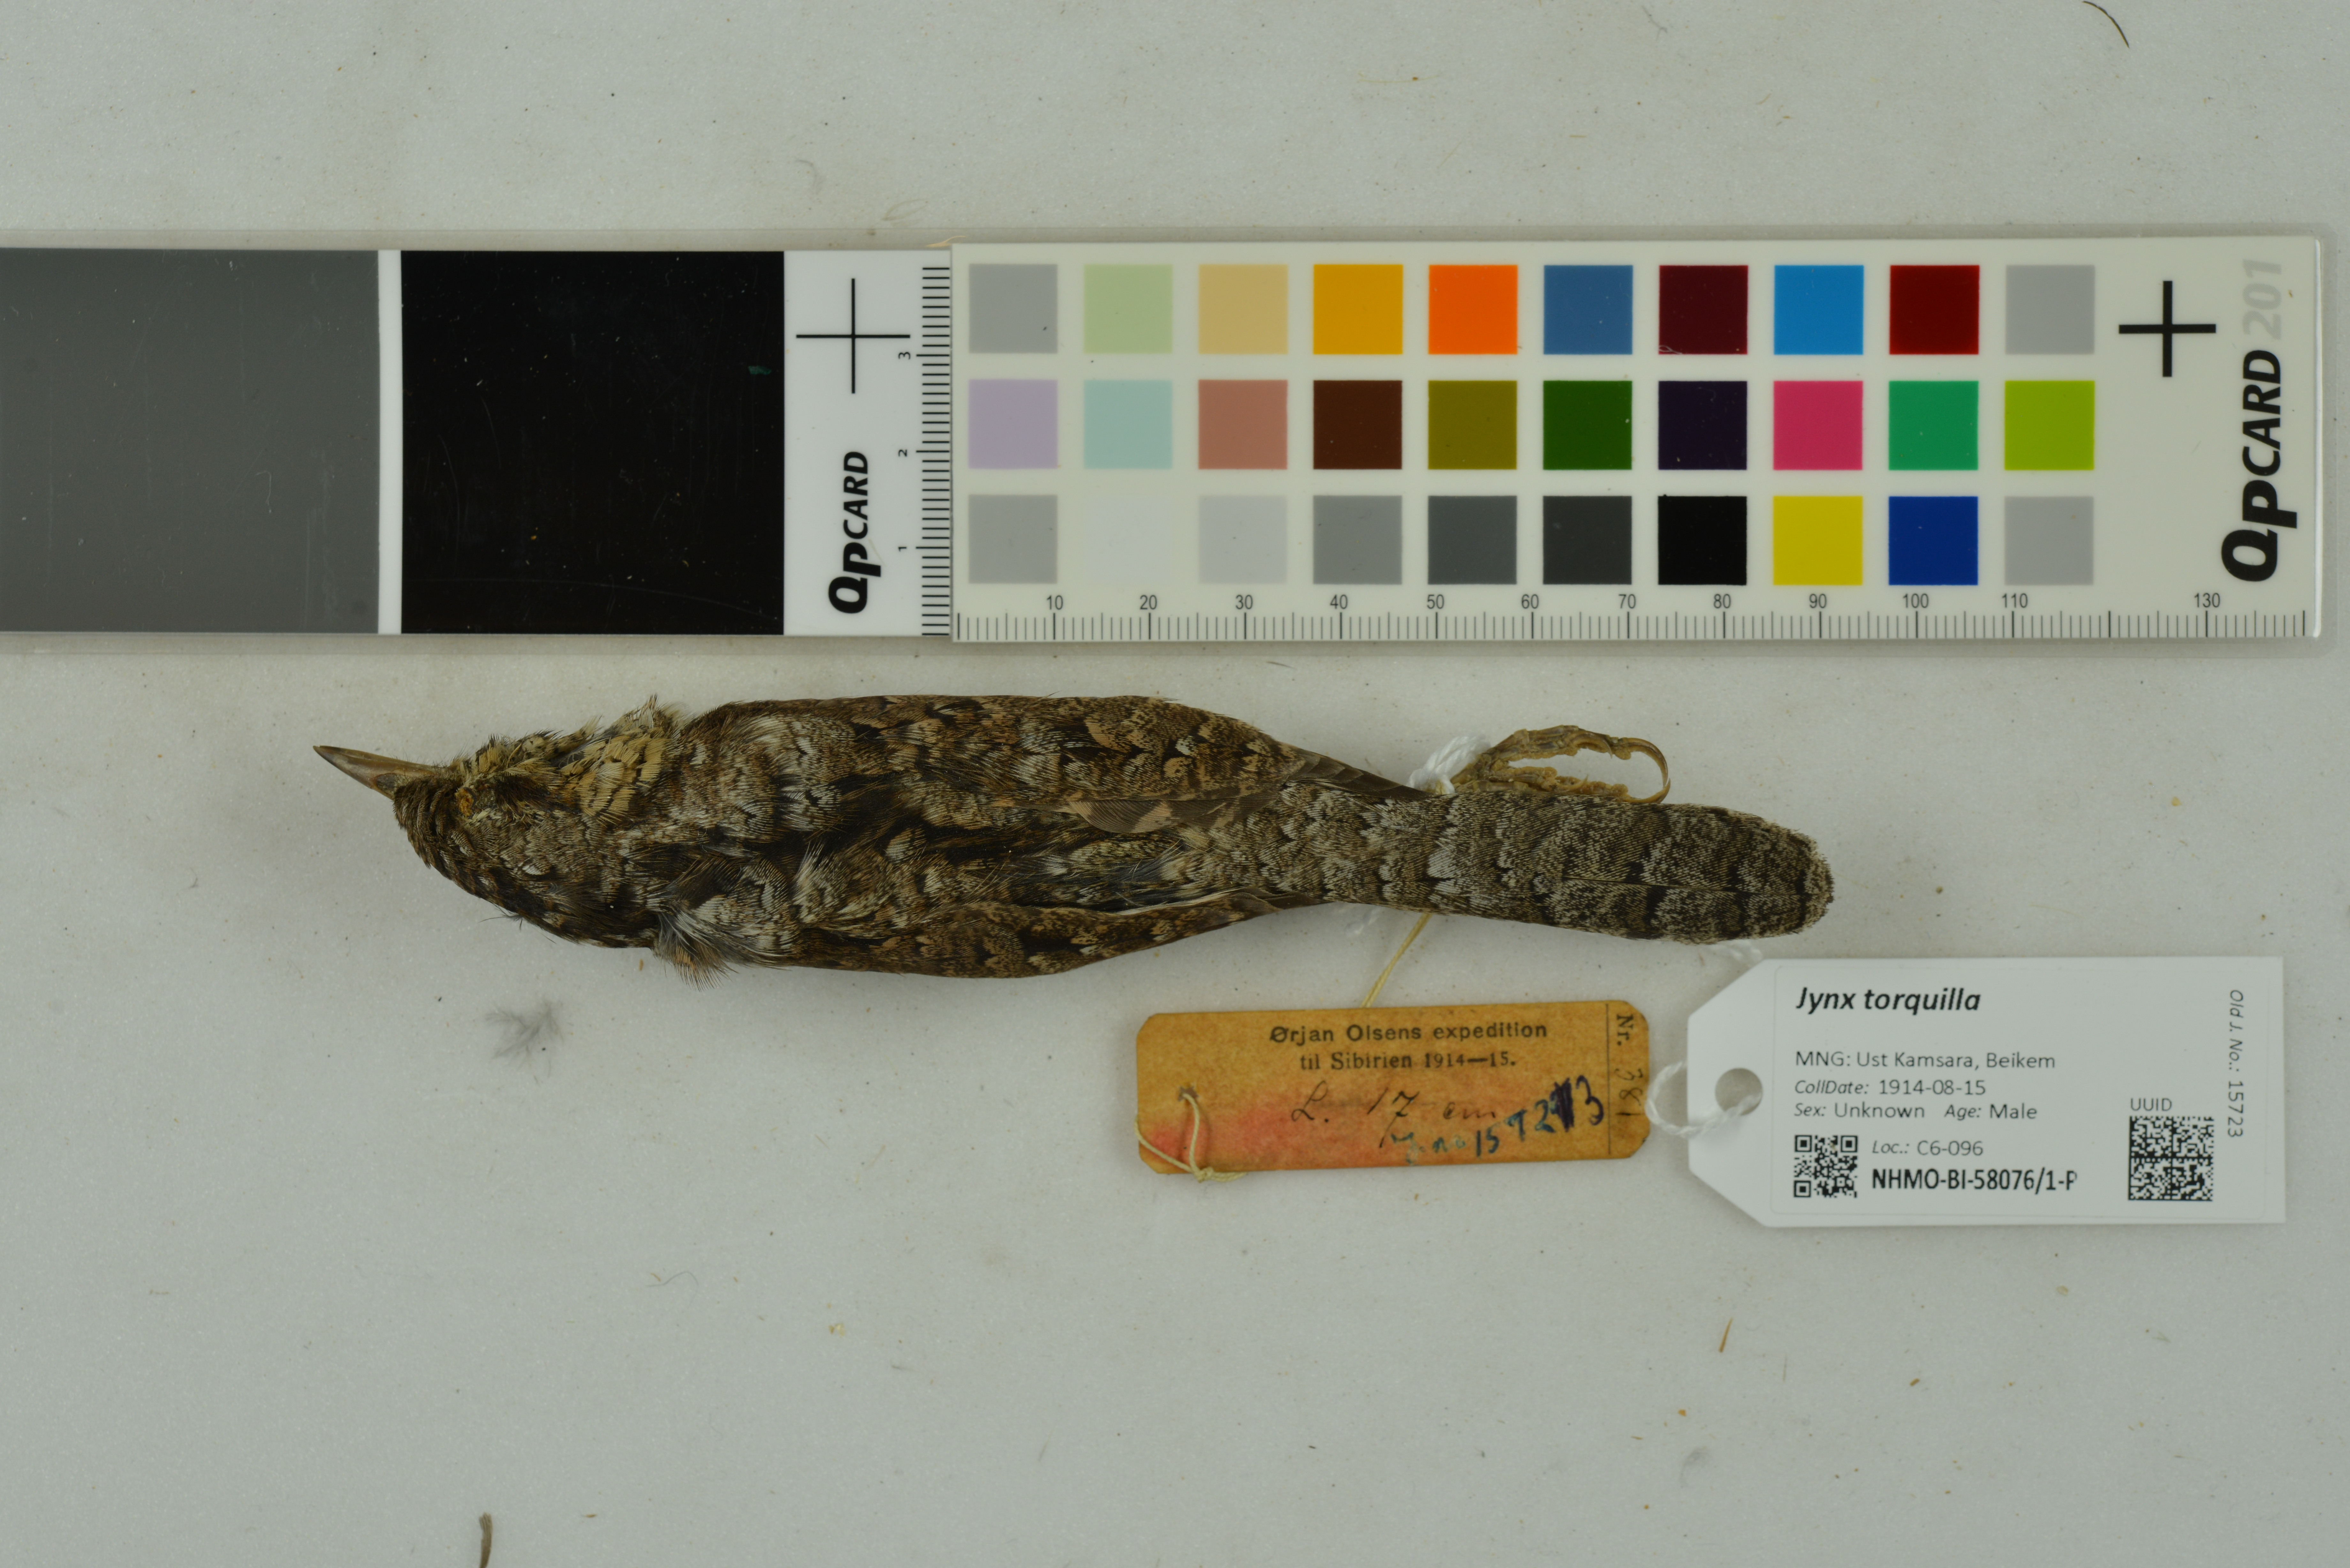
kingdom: Animalia
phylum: Chordata
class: Aves
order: Piciformes
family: Picidae
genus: Jynx
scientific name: Jynx torquilla
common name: Eurasian wryneck
